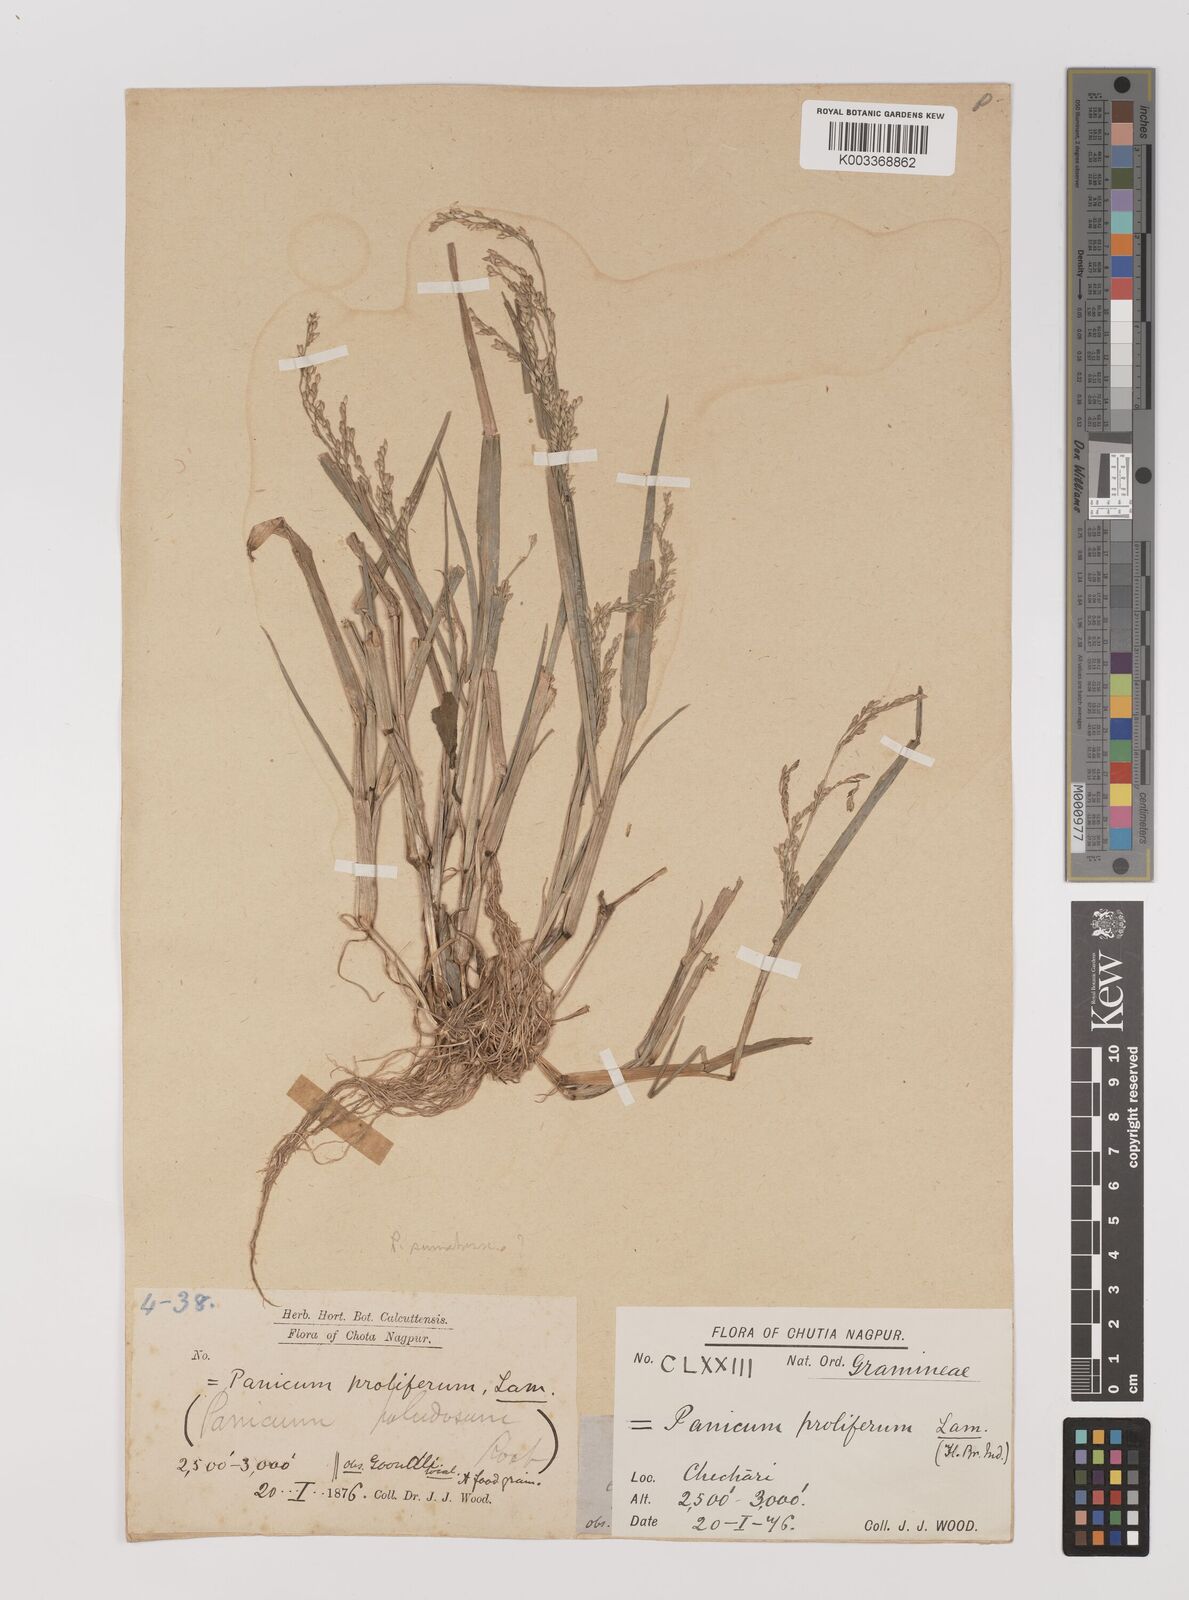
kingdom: Plantae
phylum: Tracheophyta
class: Liliopsida
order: Poales
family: Poaceae
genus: Panicum
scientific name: Panicum
